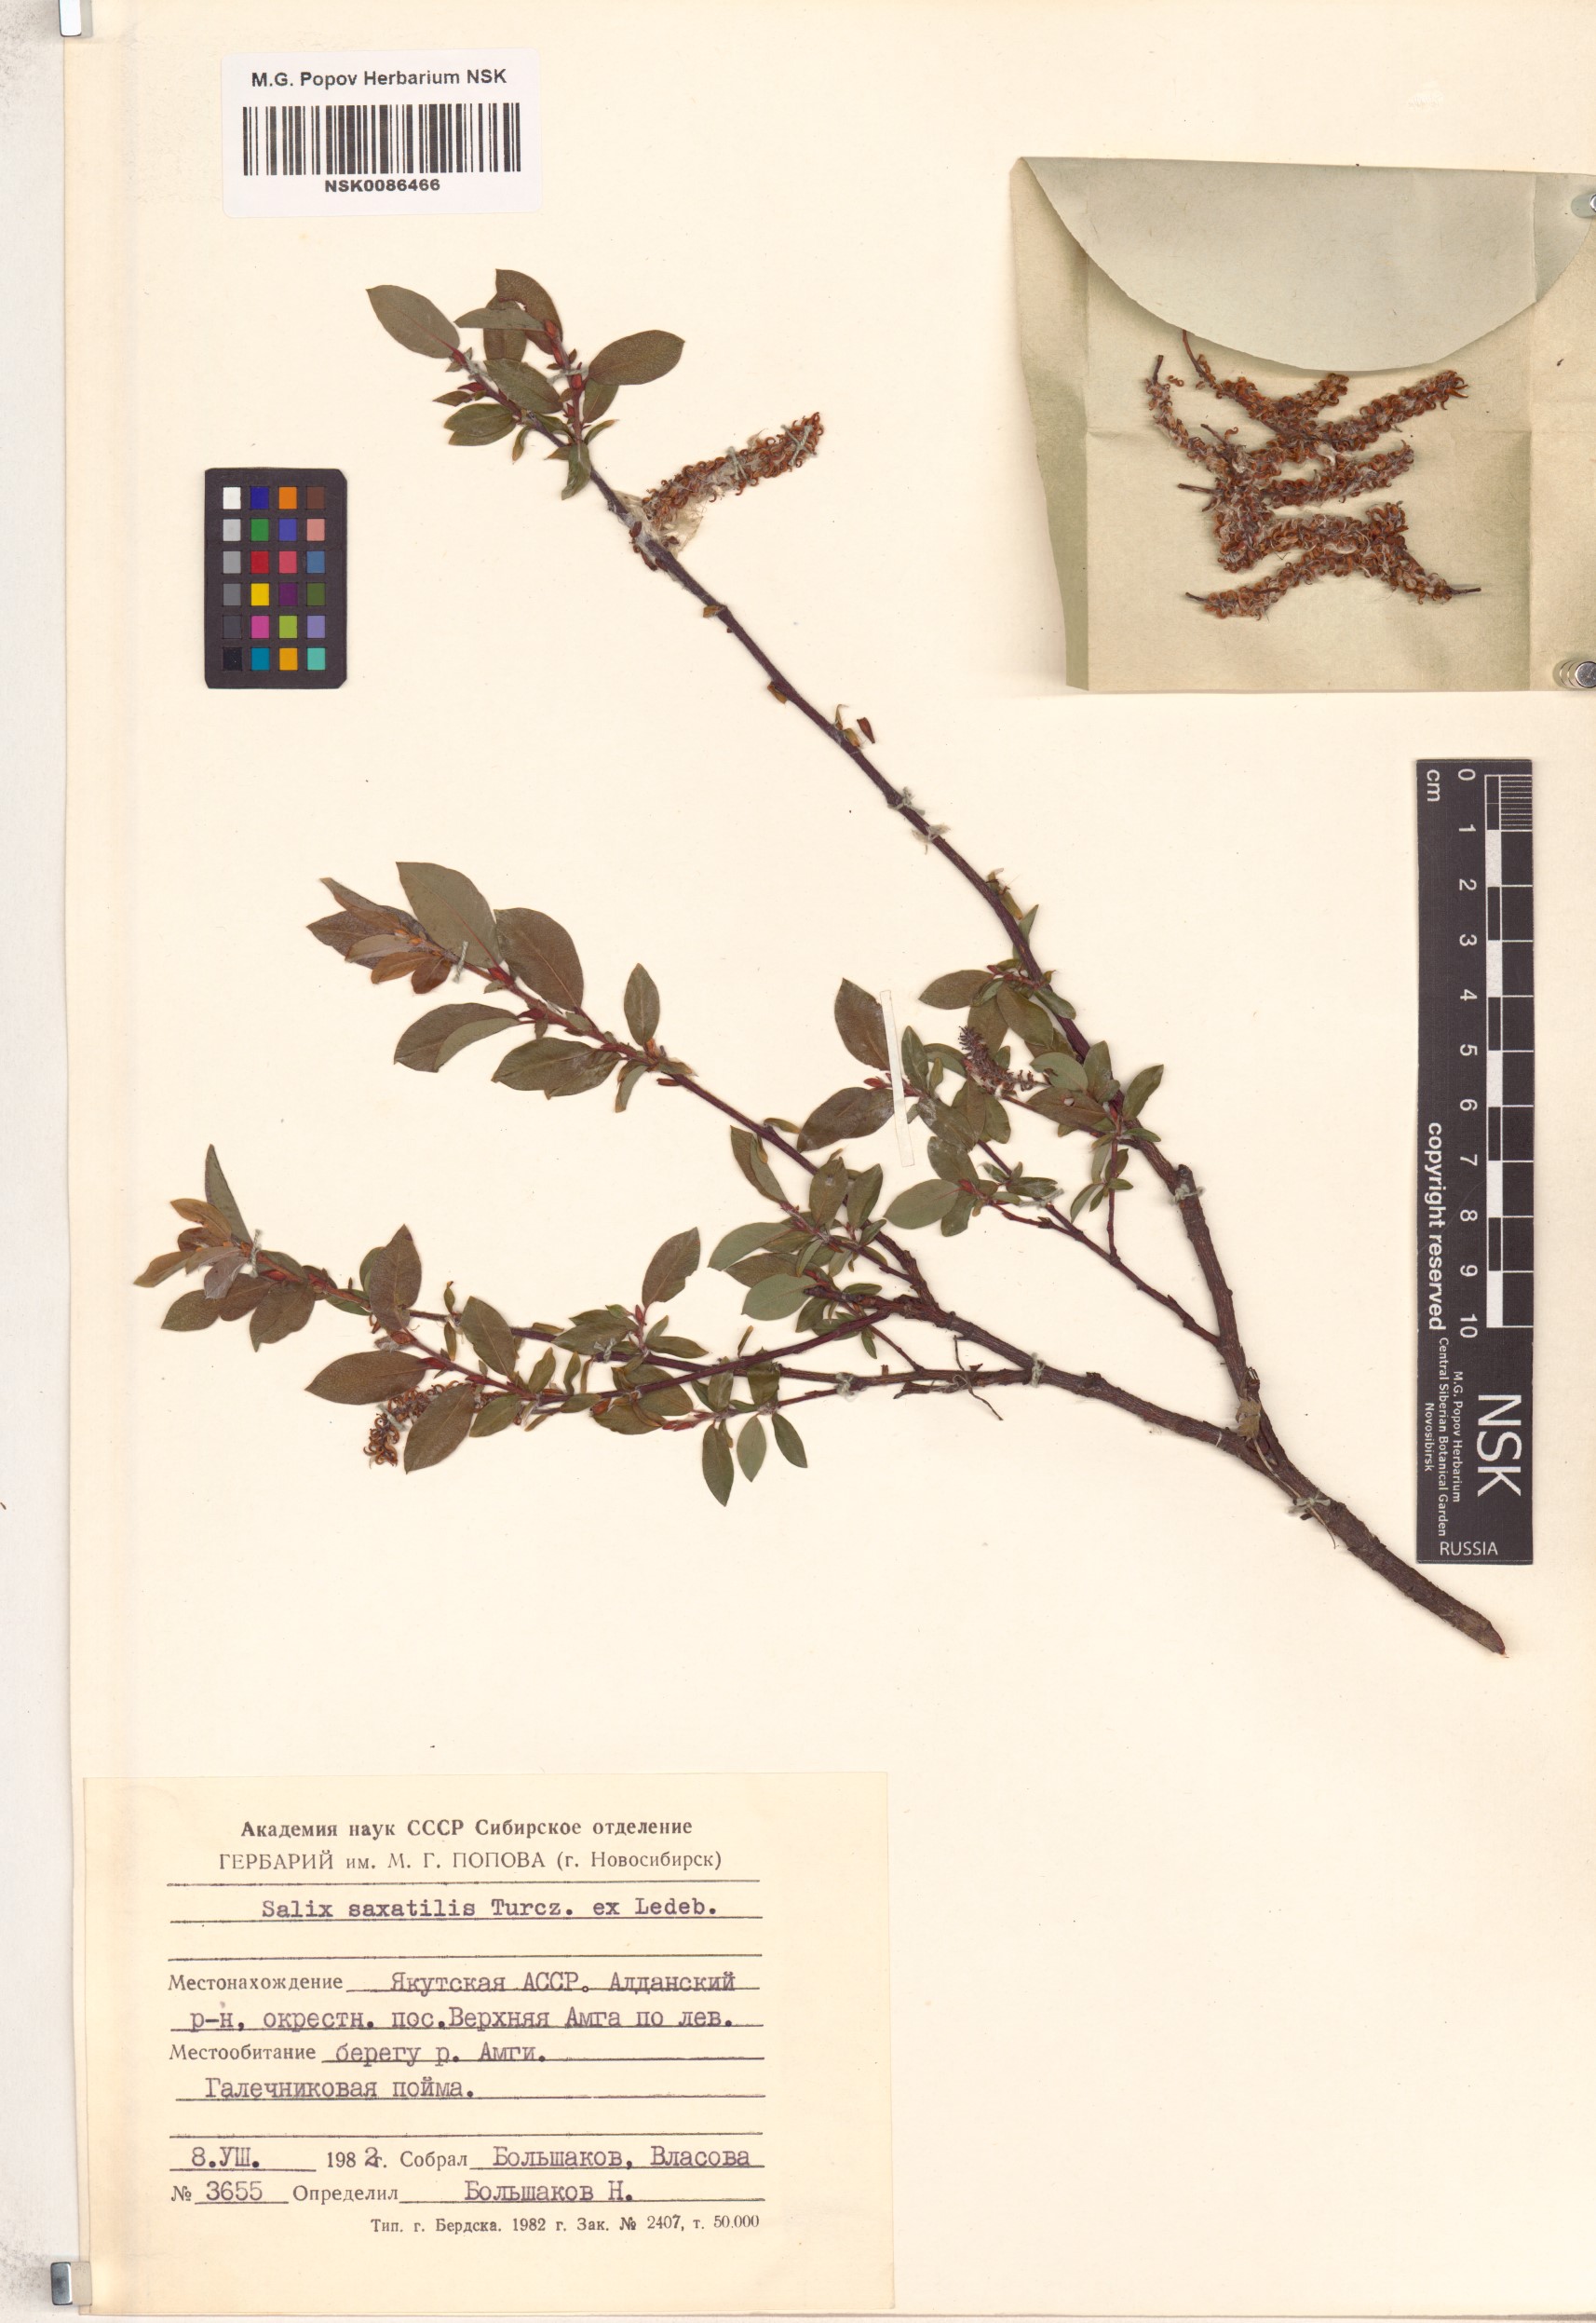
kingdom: Plantae
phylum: Tracheophyta
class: Magnoliopsida
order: Malpighiales
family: Salicaceae
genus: Salix
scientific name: Salix saxatilis
